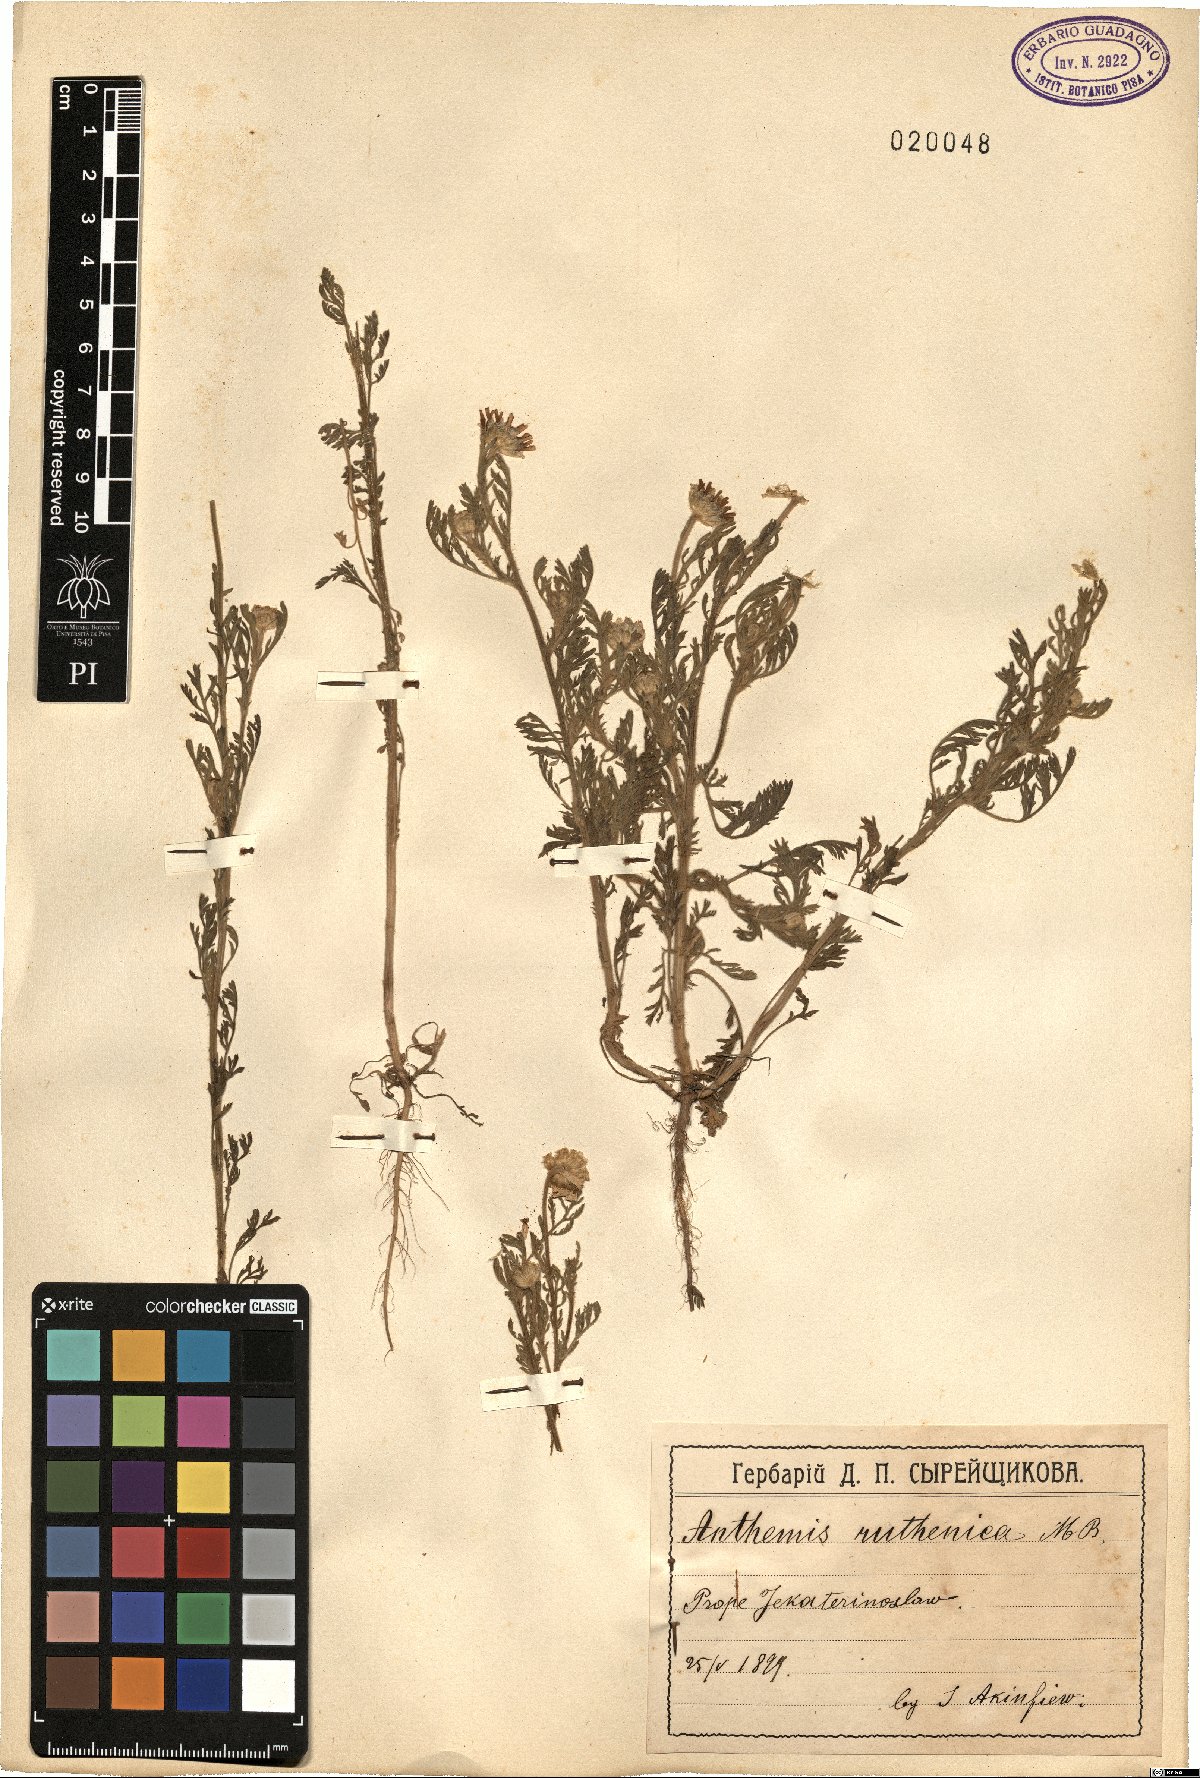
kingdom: Plantae
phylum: Tracheophyta
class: Magnoliopsida
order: Asterales
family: Asteraceae
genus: Anthemis
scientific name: Anthemis ruthenica
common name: Eastern chamomile
